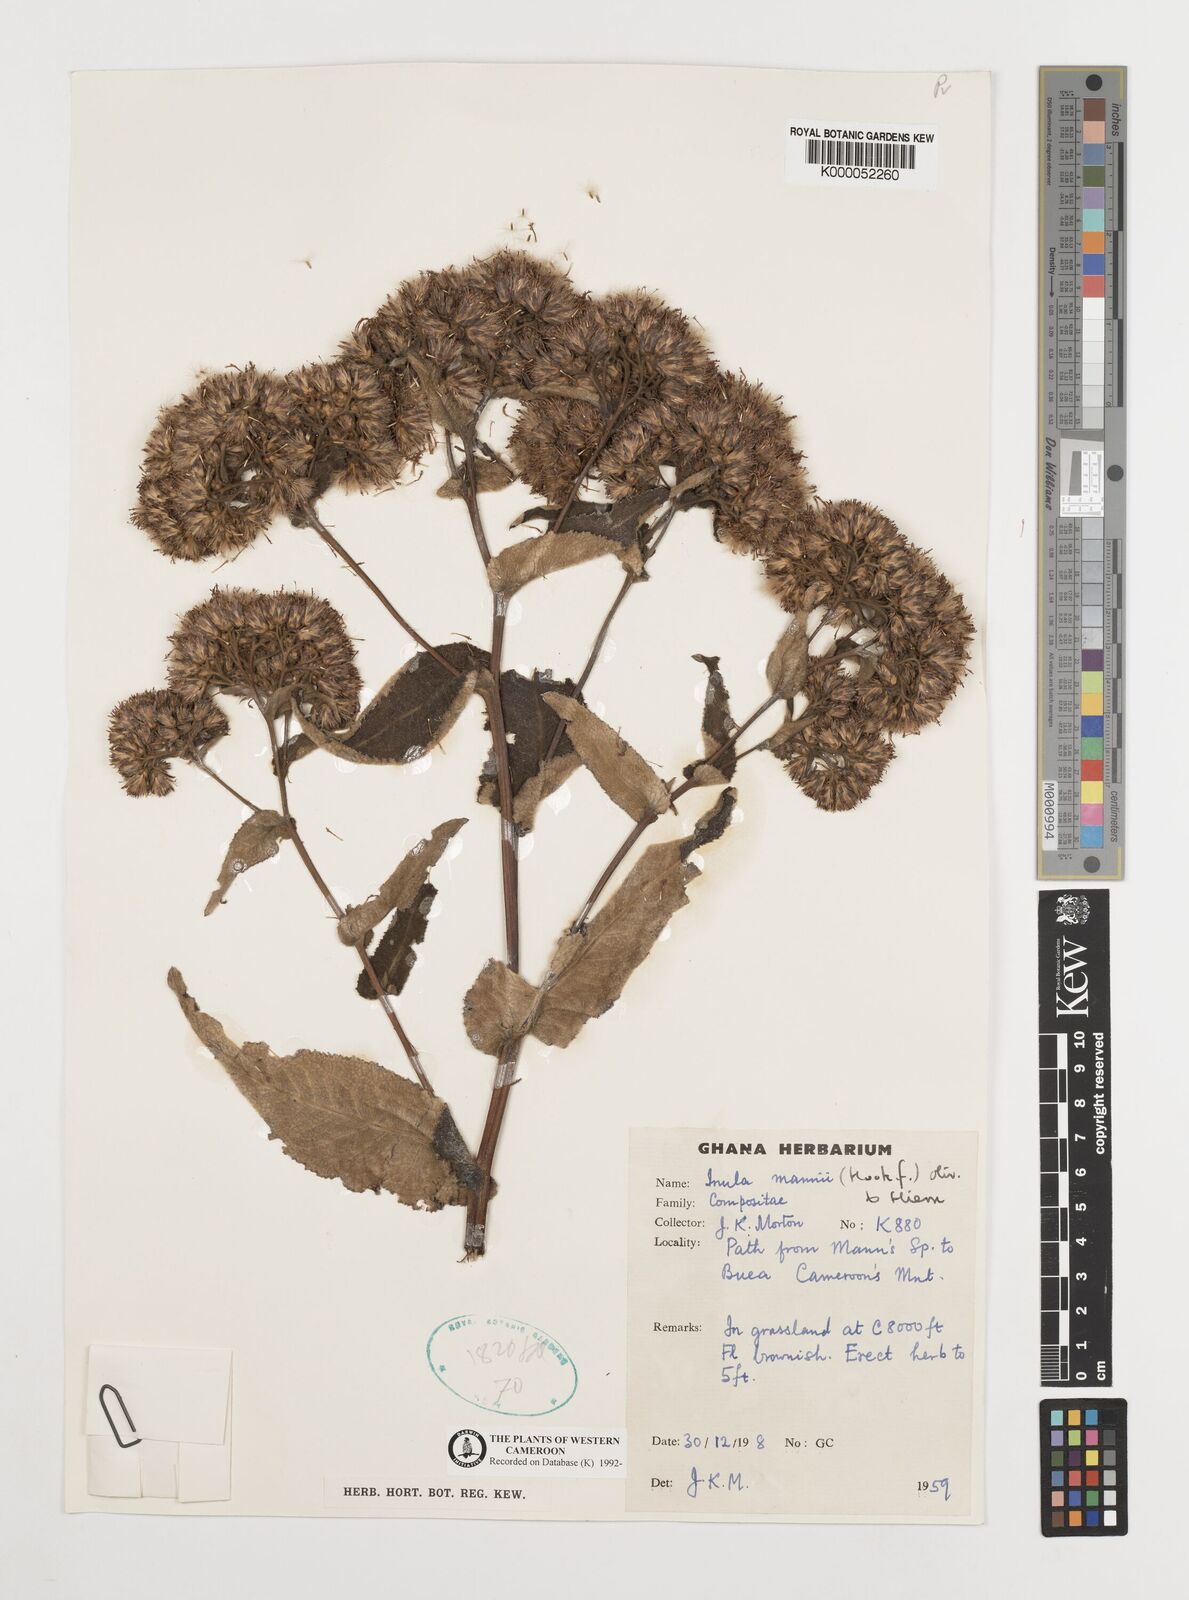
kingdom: Plantae
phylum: Tracheophyta
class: Magnoliopsida
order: Asterales
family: Asteraceae
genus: Inula
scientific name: Inula mannii
